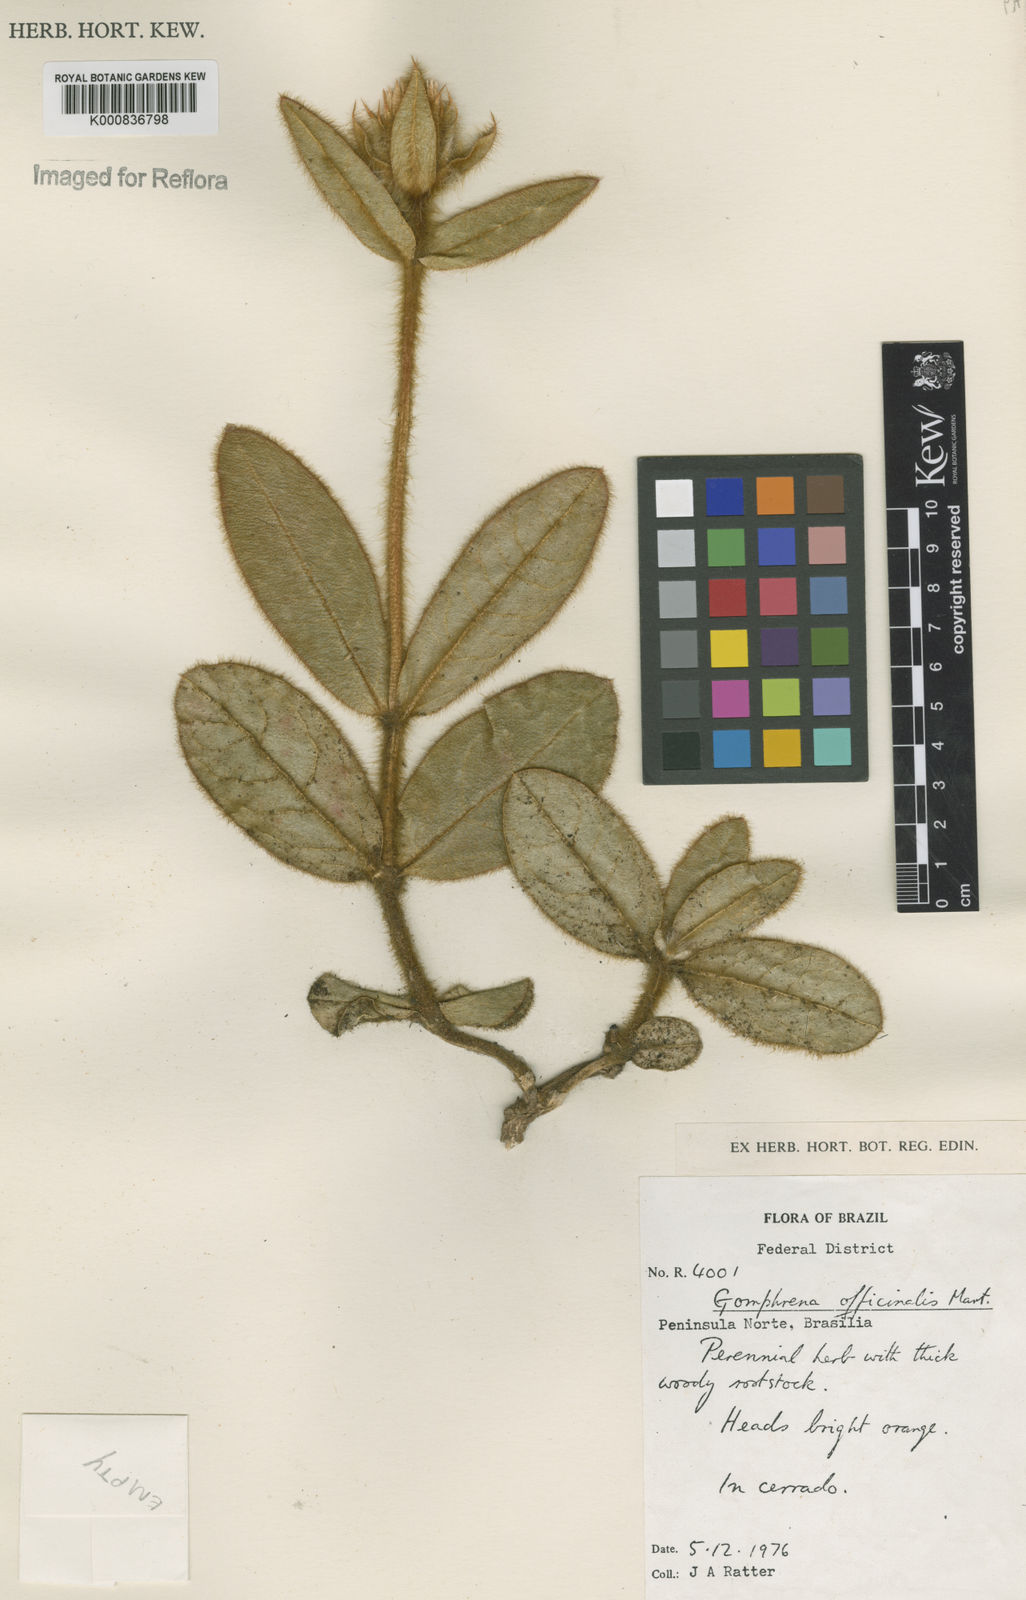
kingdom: Plantae
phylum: Tracheophyta
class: Magnoliopsida
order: Caryophyllales
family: Amaranthaceae
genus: Gomphrena
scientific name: Gomphrena arborescens
